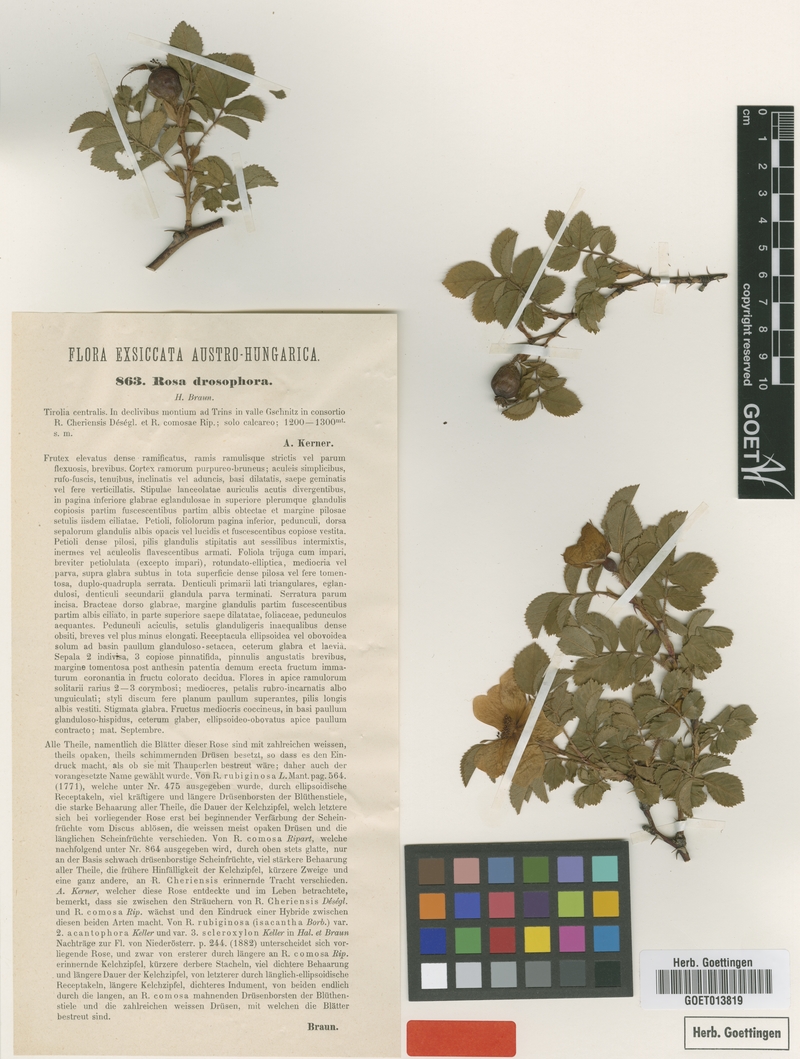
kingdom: Plantae
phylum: Tracheophyta
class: Magnoliopsida
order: Rosales
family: Rosaceae
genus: Rosa
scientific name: Rosa rubiginosa
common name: Sweet-briar
